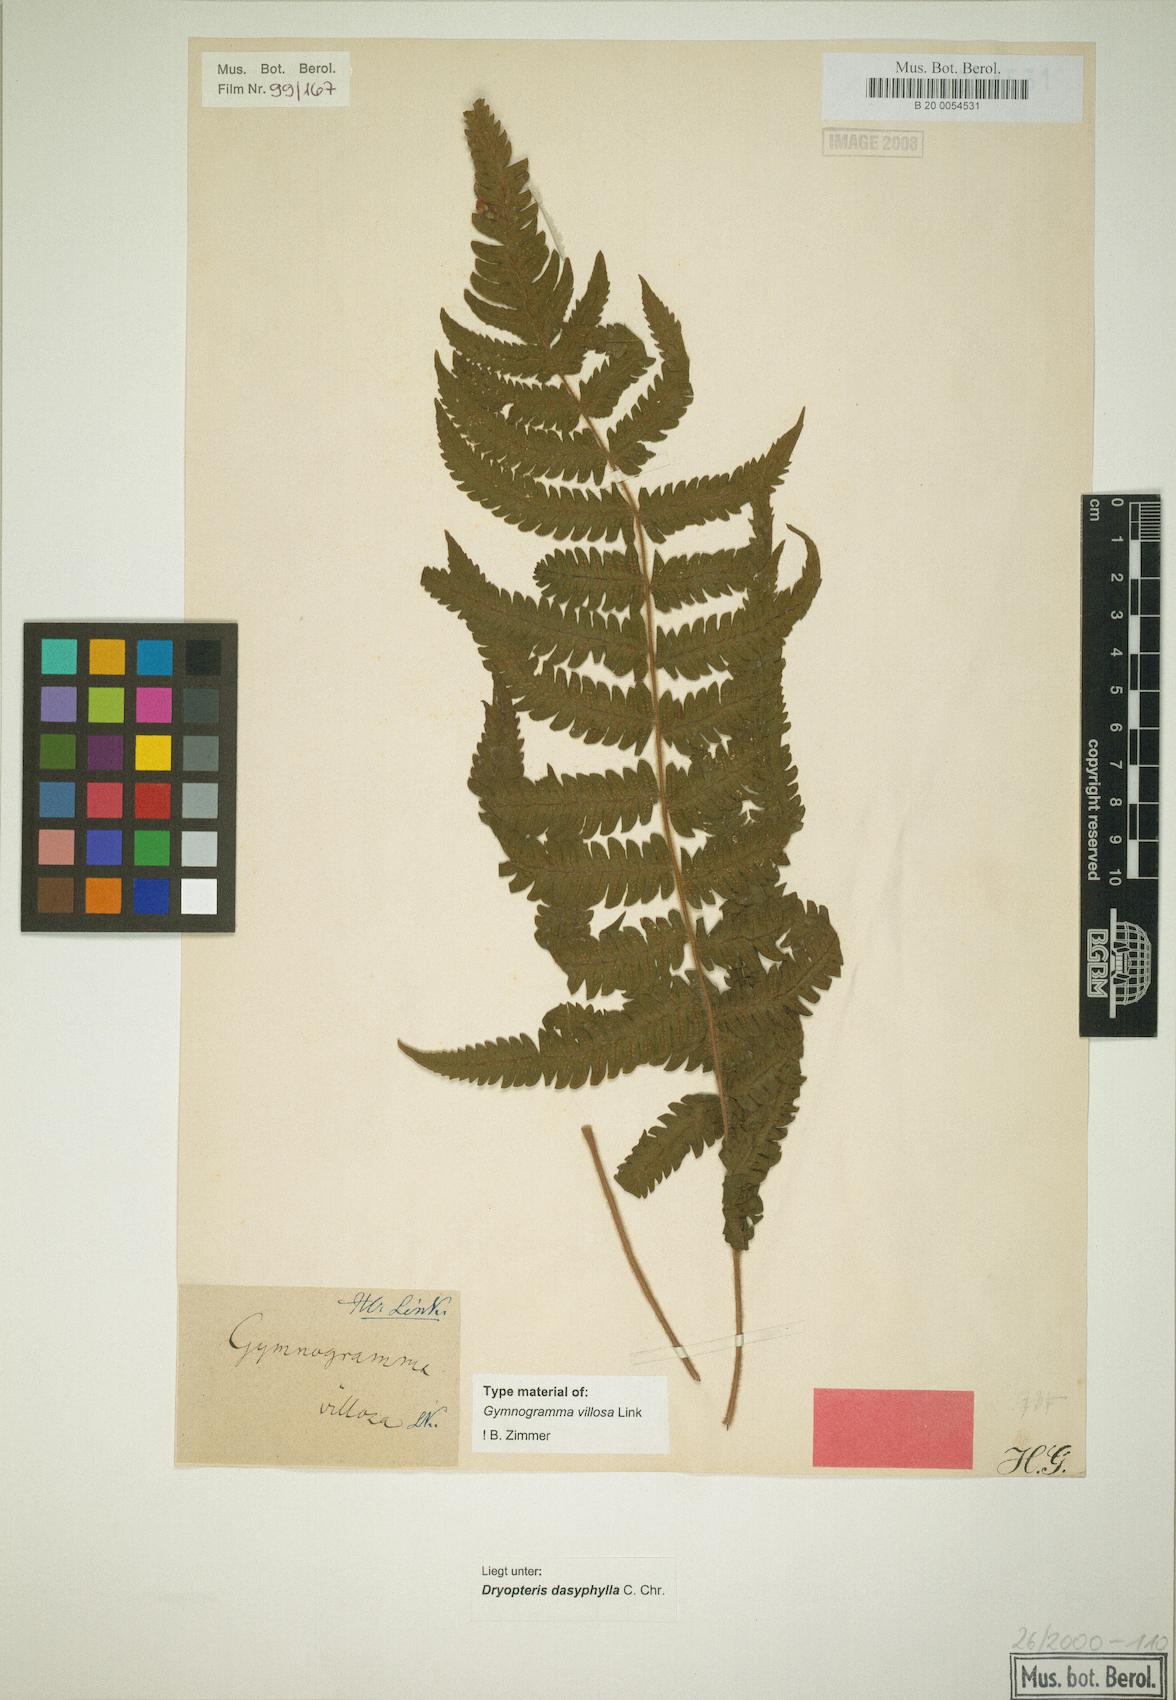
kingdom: Plantae
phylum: Tracheophyta
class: Polypodiopsida
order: Polypodiales
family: Thelypteridaceae
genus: Steiropteris
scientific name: Steiropteris villosa
